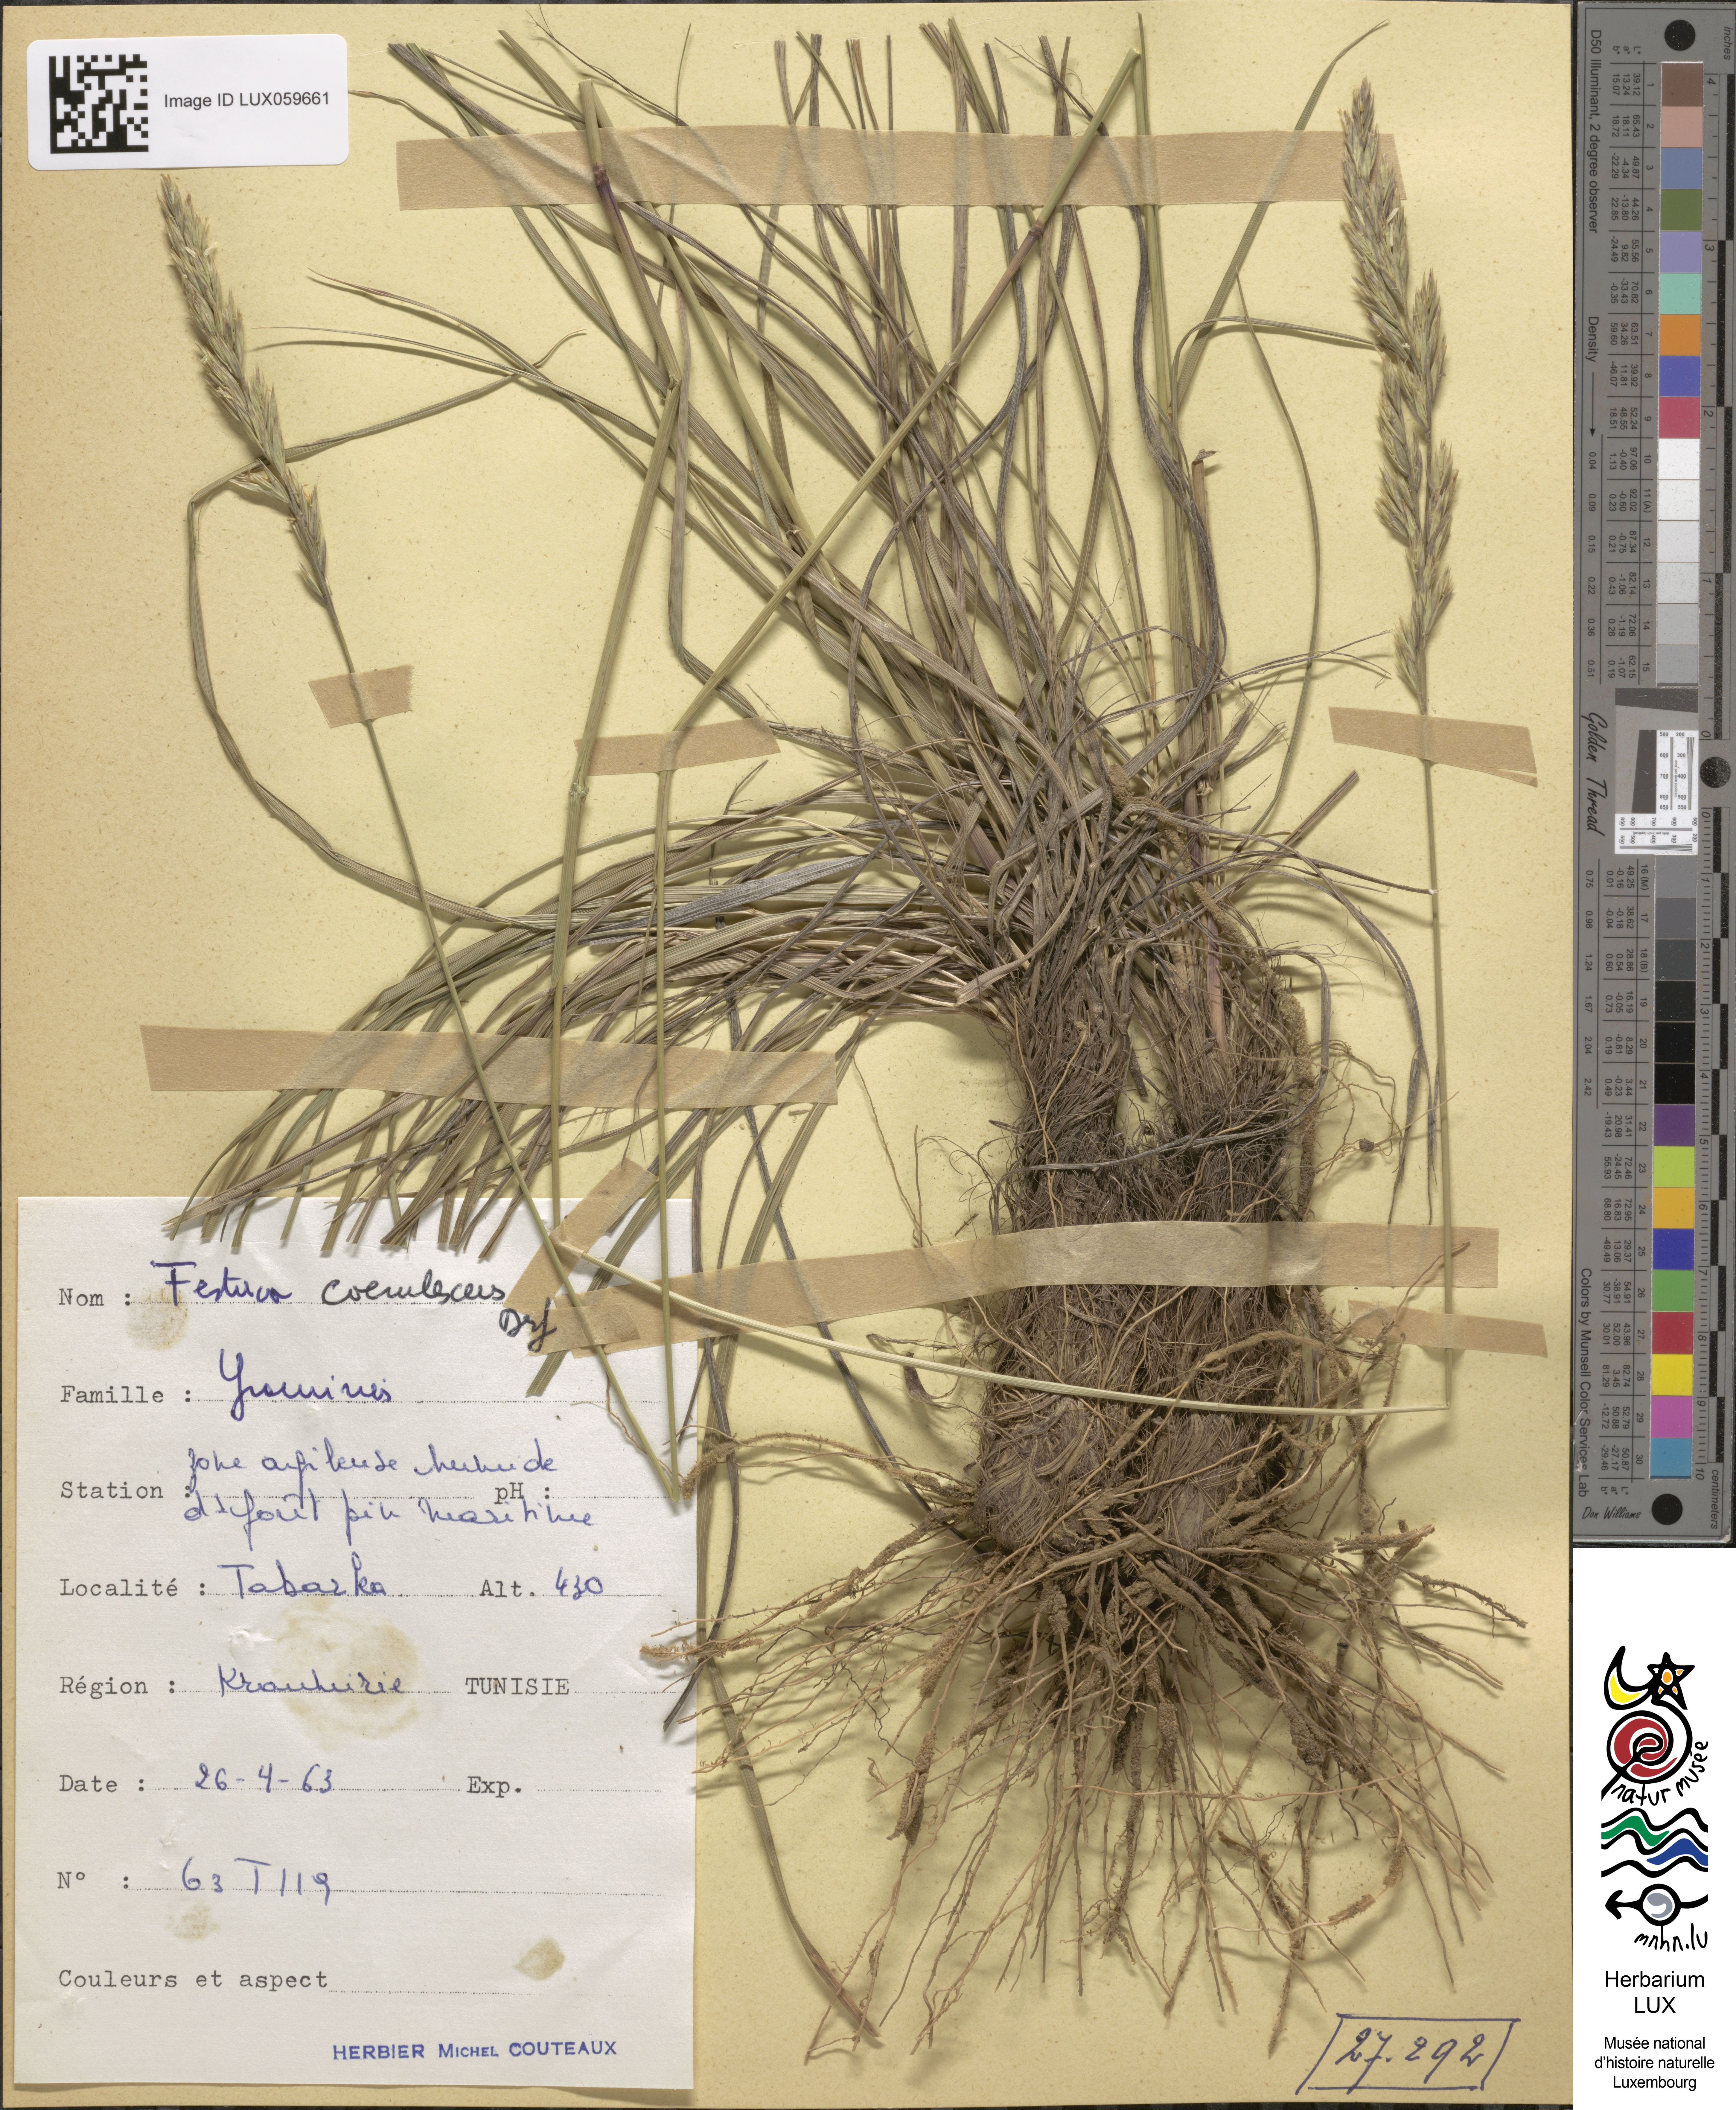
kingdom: Plantae
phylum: Tracheophyta
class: Liliopsida
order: Poales
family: Poaceae
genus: Festuca
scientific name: Festuca caerulescens
